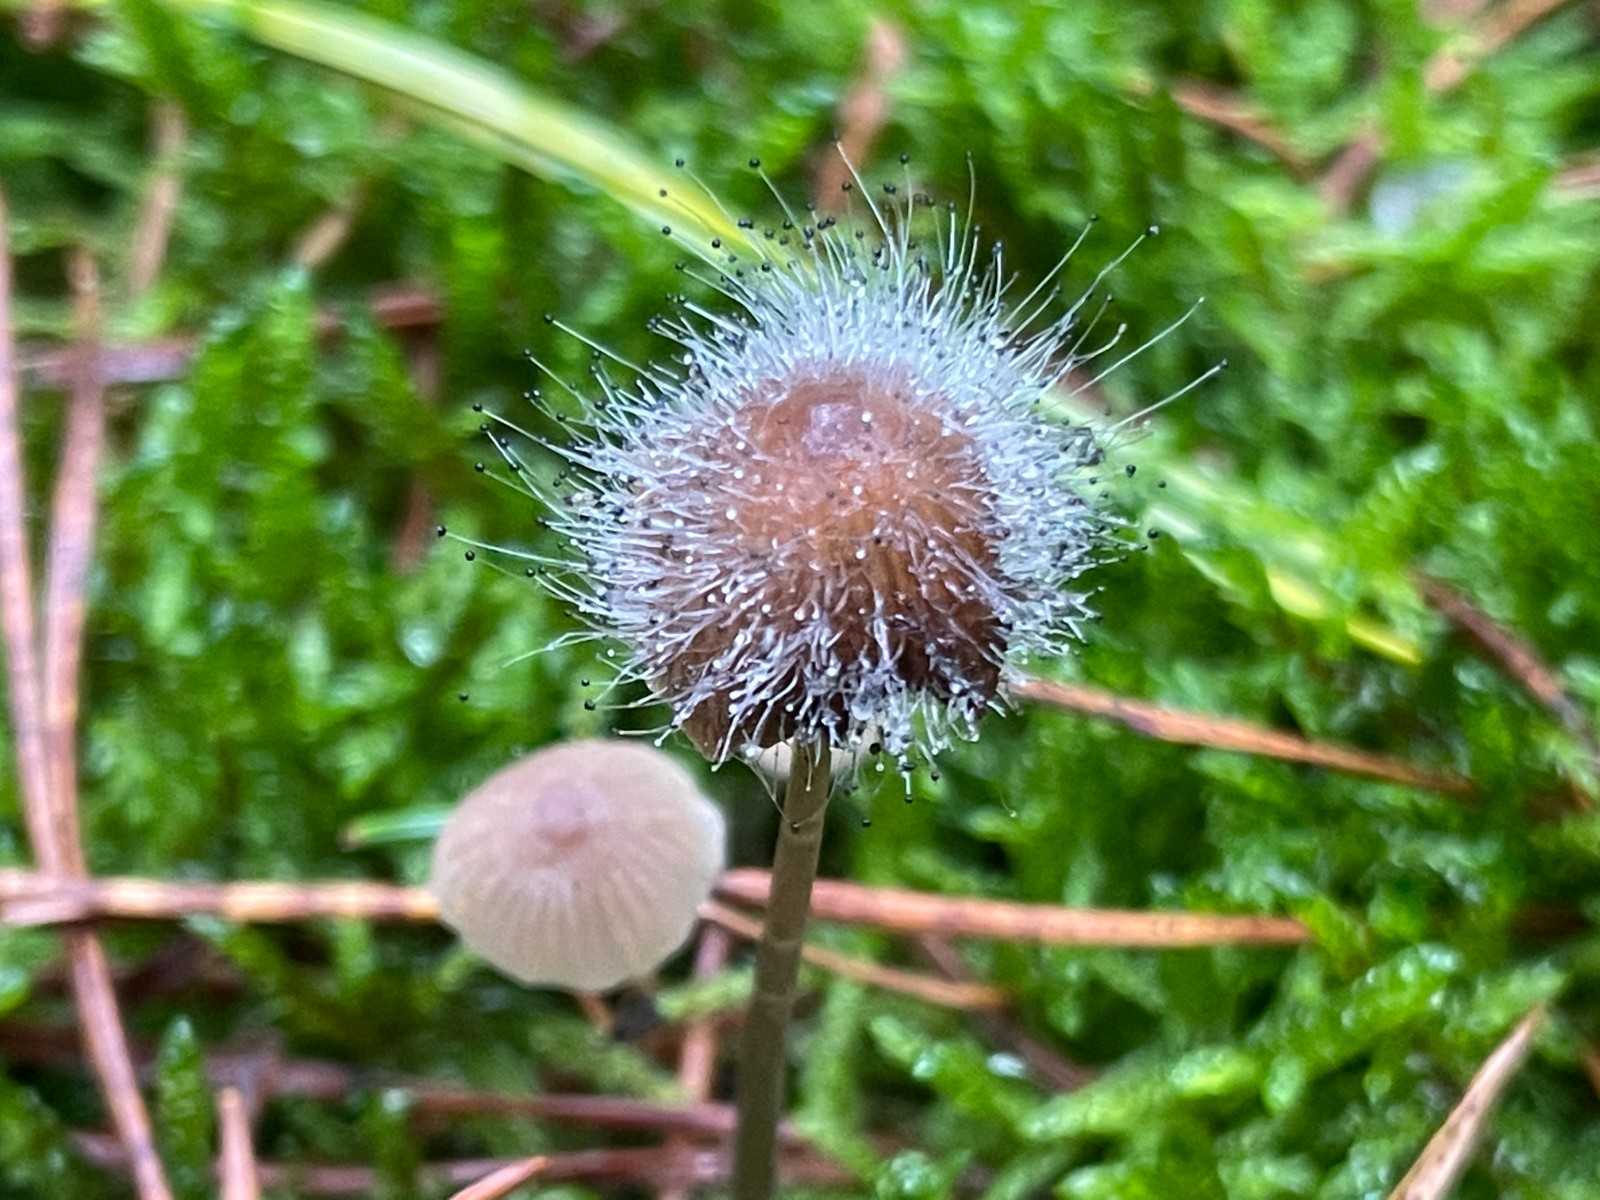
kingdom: Fungi
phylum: Mucoromycota
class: Mucoromycetes
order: Mucorales
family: Phycomycetaceae
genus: Spinellus
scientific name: Spinellus fusiger
